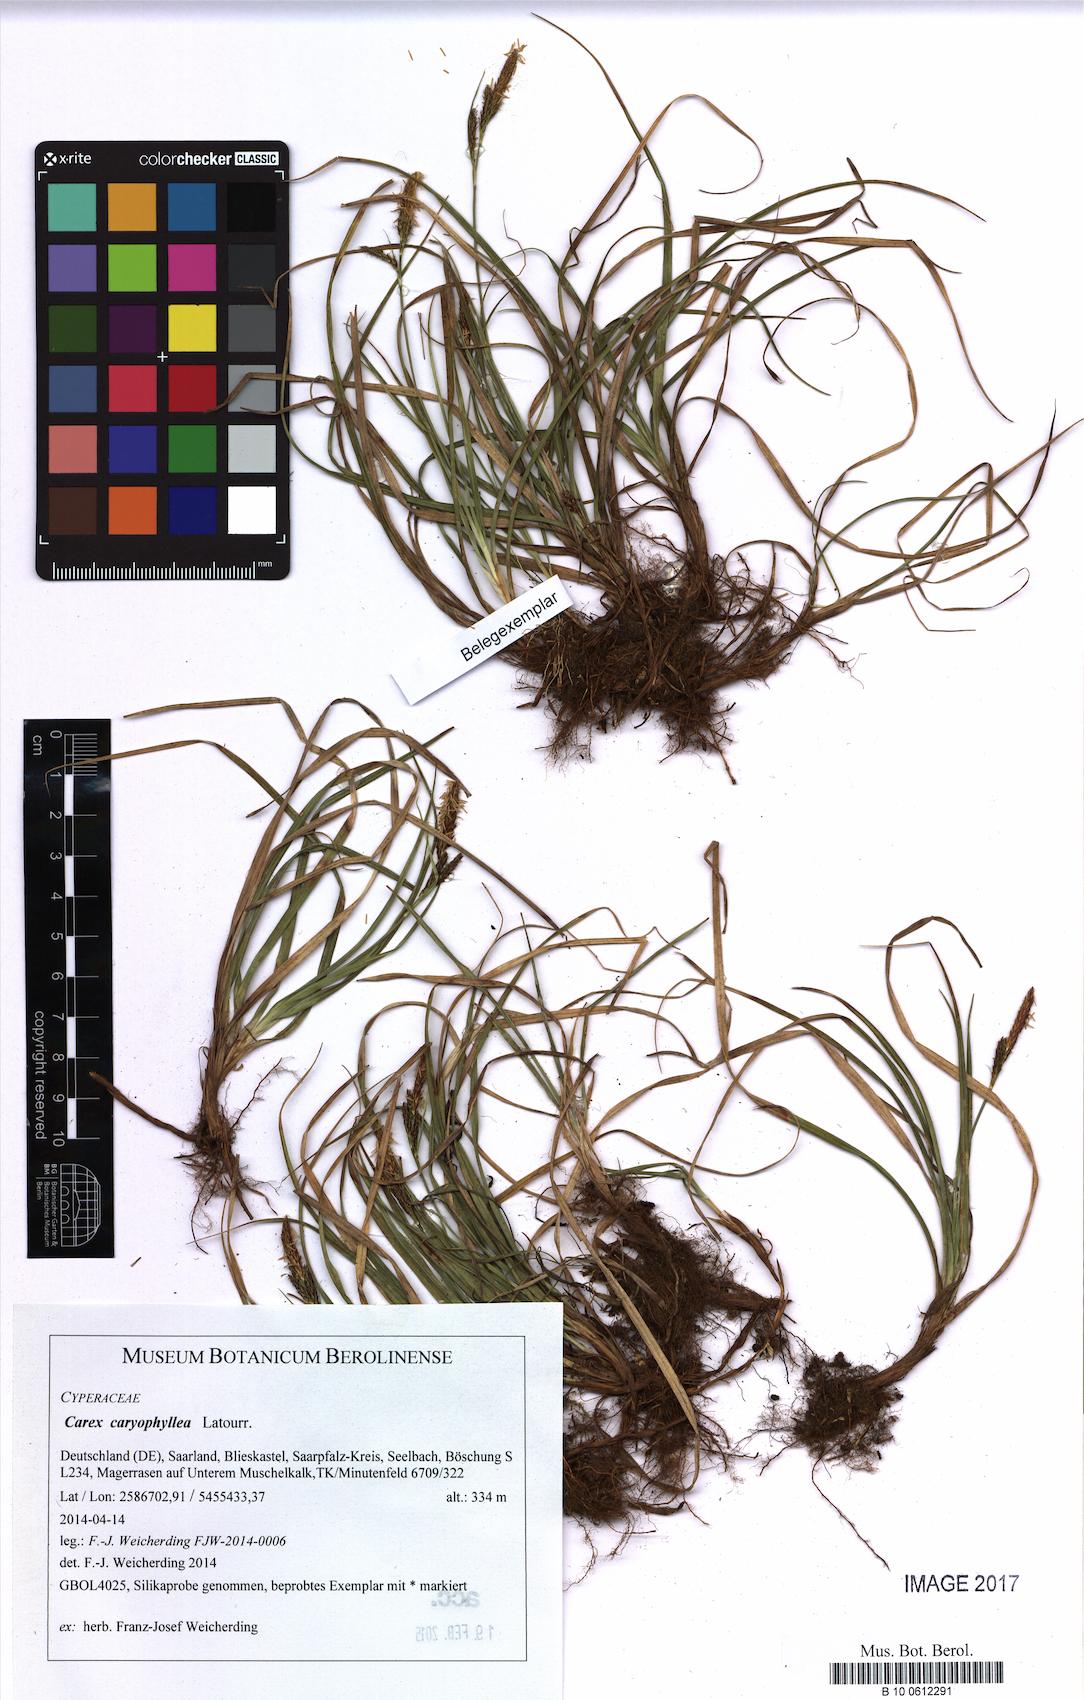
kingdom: Plantae
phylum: Tracheophyta
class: Liliopsida
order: Poales
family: Cyperaceae
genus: Carex
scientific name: Carex caryophyllea
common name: Spring sedge
